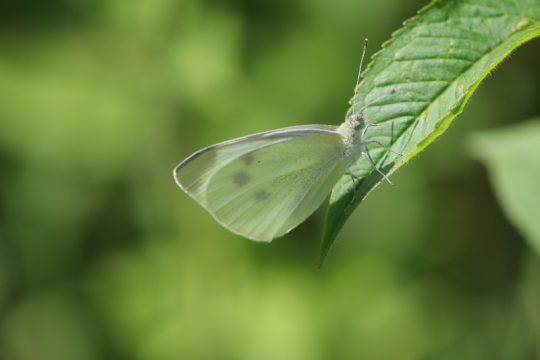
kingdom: Animalia
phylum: Arthropoda
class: Insecta
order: Lepidoptera
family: Pieridae
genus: Pieris
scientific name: Pieris rapae
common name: Cabbage White
